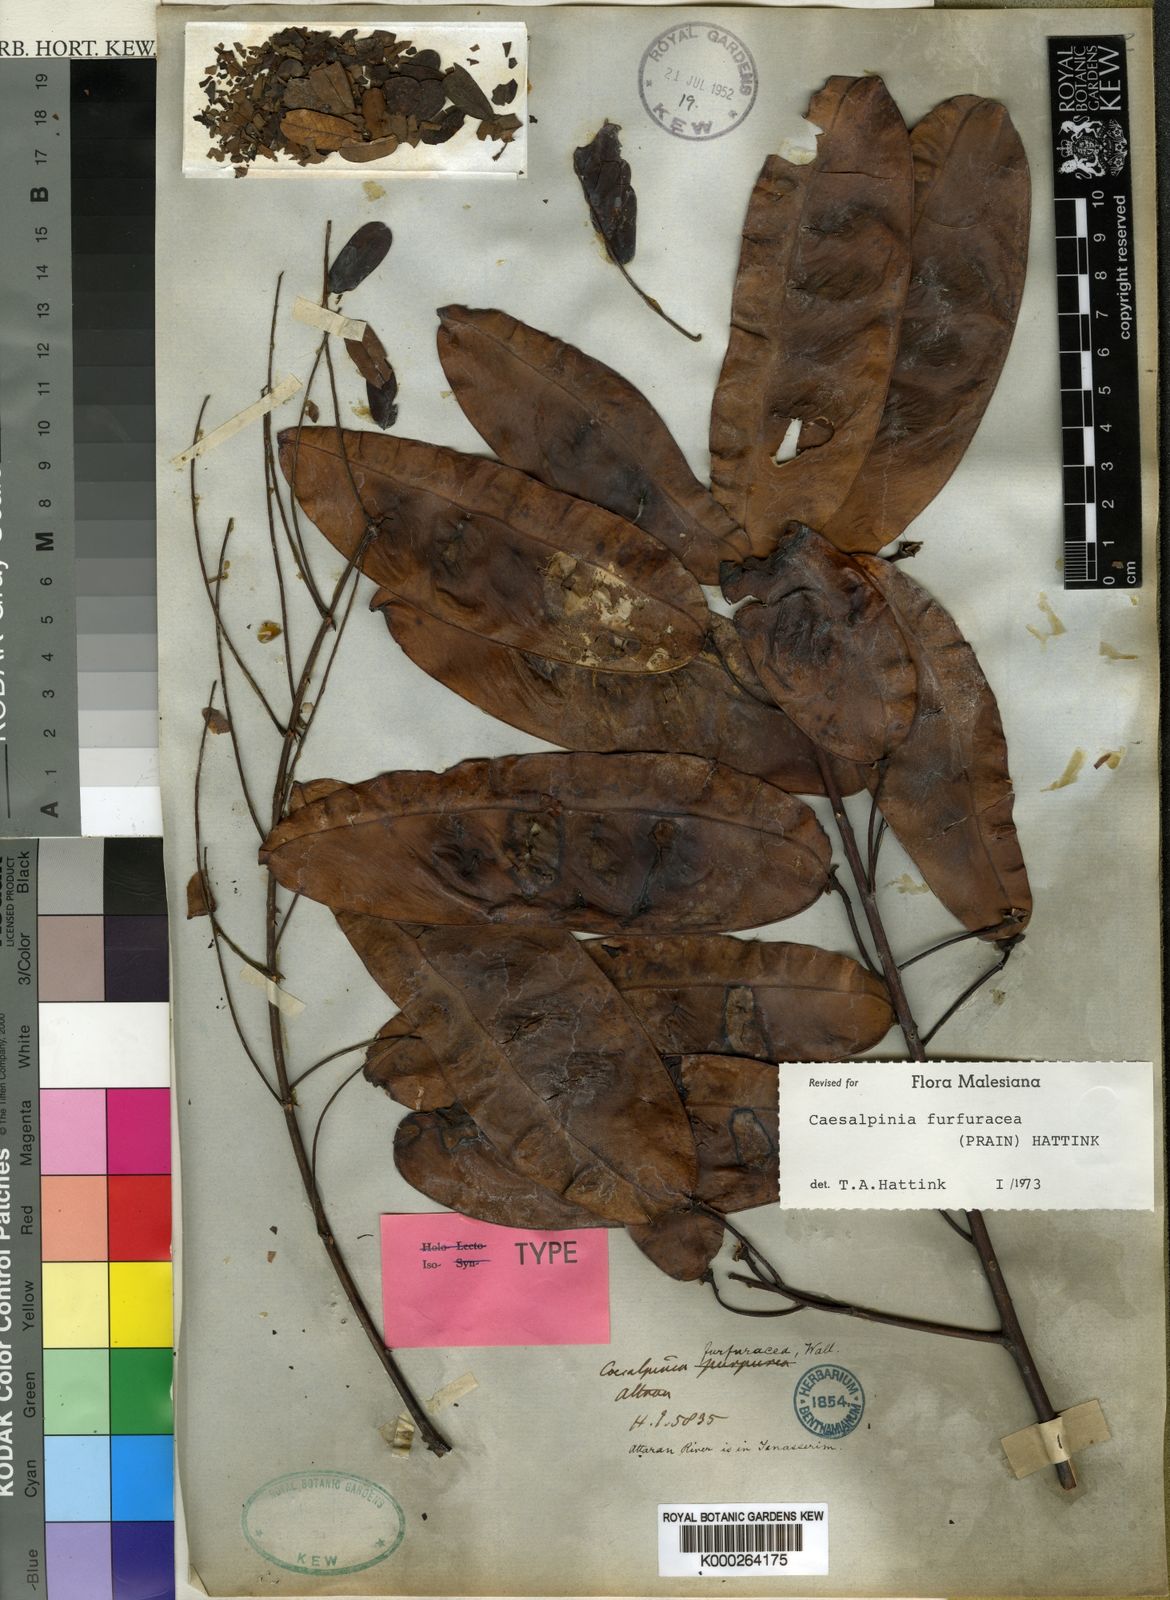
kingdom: Plantae
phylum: Tracheophyta
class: Magnoliopsida
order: Fabales
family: Fabaceae
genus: Mezoneuron
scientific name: Mezoneuron furfuraceum
